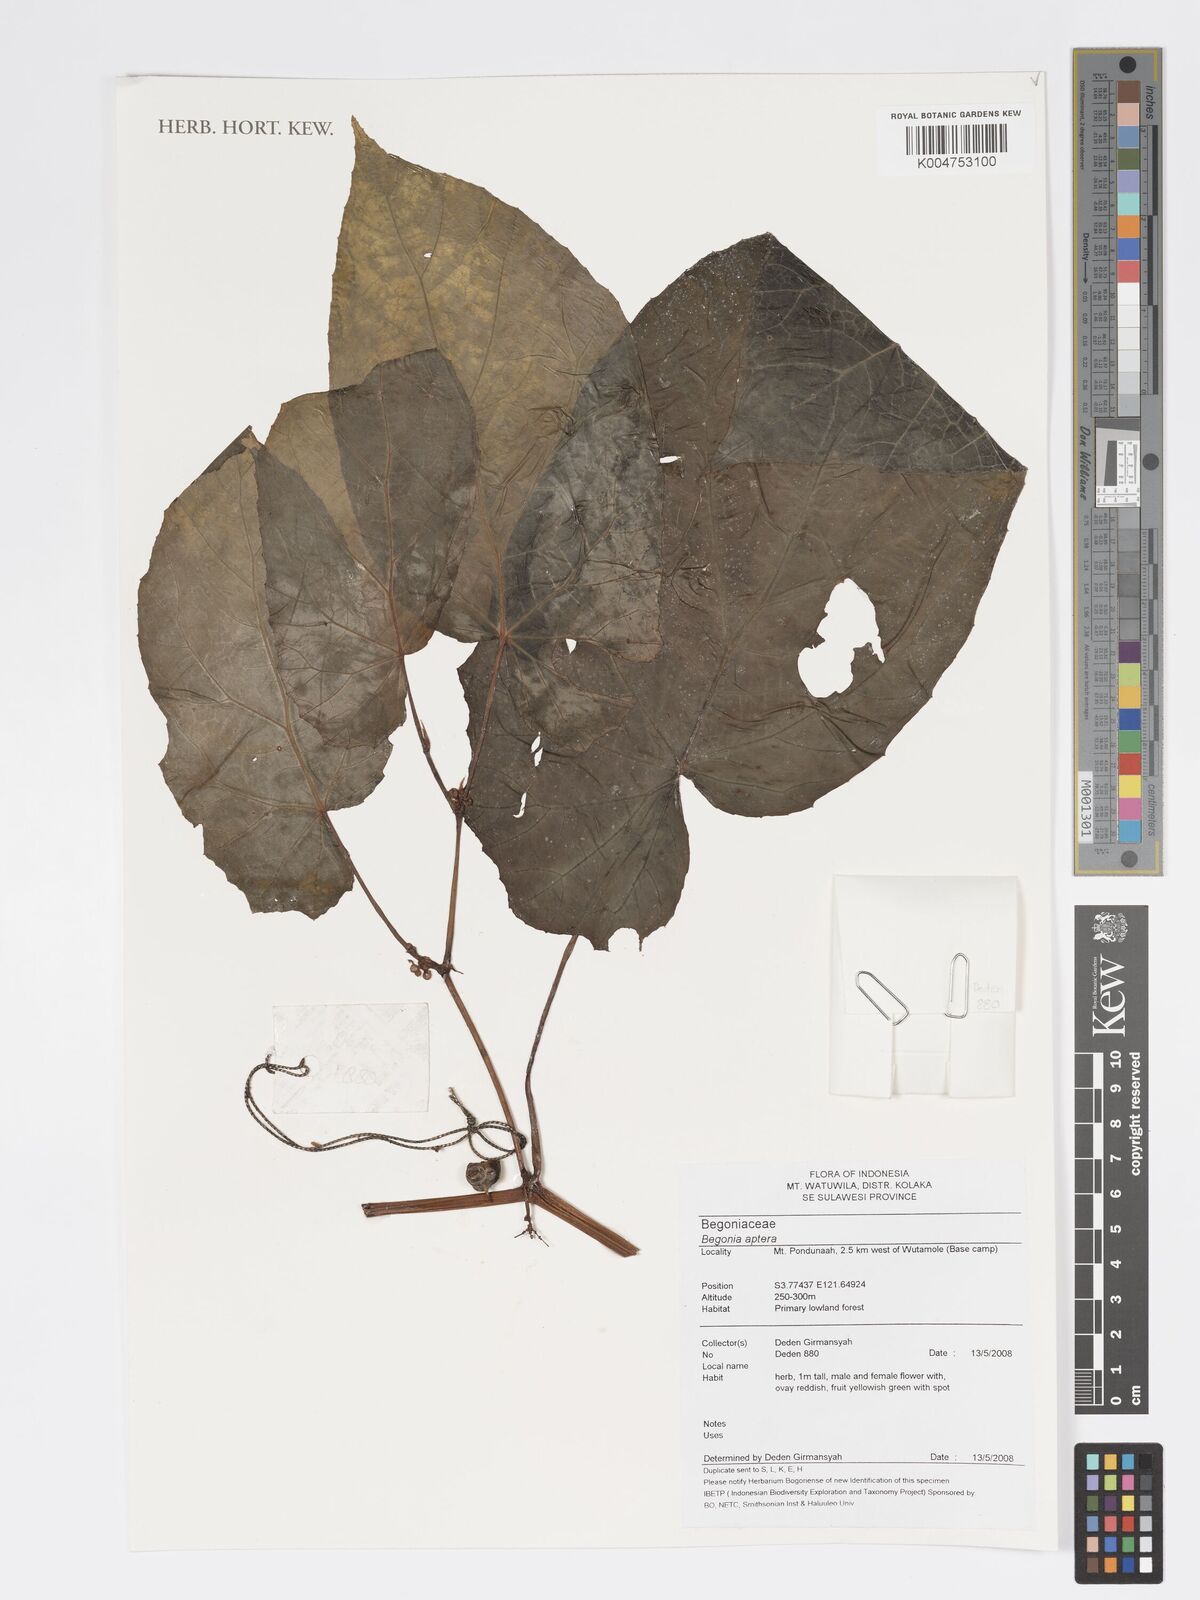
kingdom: Plantae
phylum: Tracheophyta
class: Magnoliopsida
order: Cucurbitales
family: Begoniaceae
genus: Begonia
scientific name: Begonia
